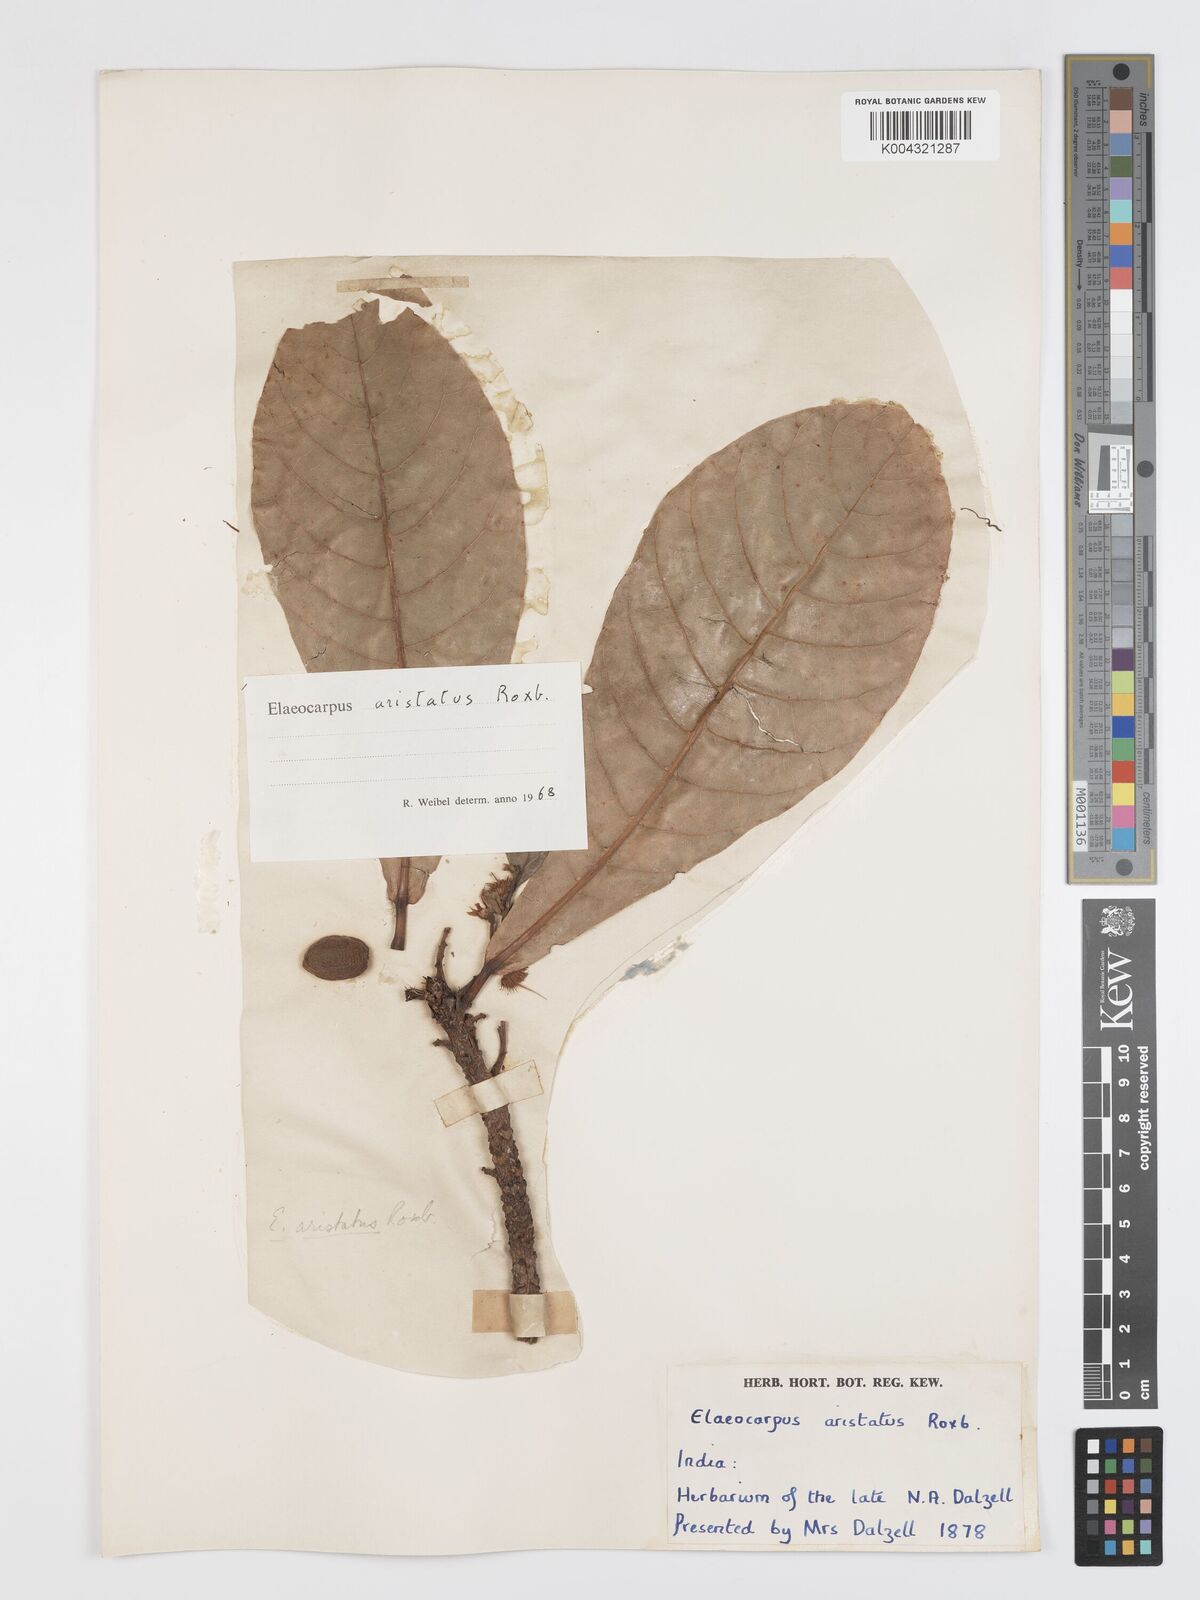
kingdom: Plantae
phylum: Tracheophyta
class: Magnoliopsida
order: Oxalidales
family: Elaeocarpaceae
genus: Elaeocarpus
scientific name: Elaeocarpus aristatus
